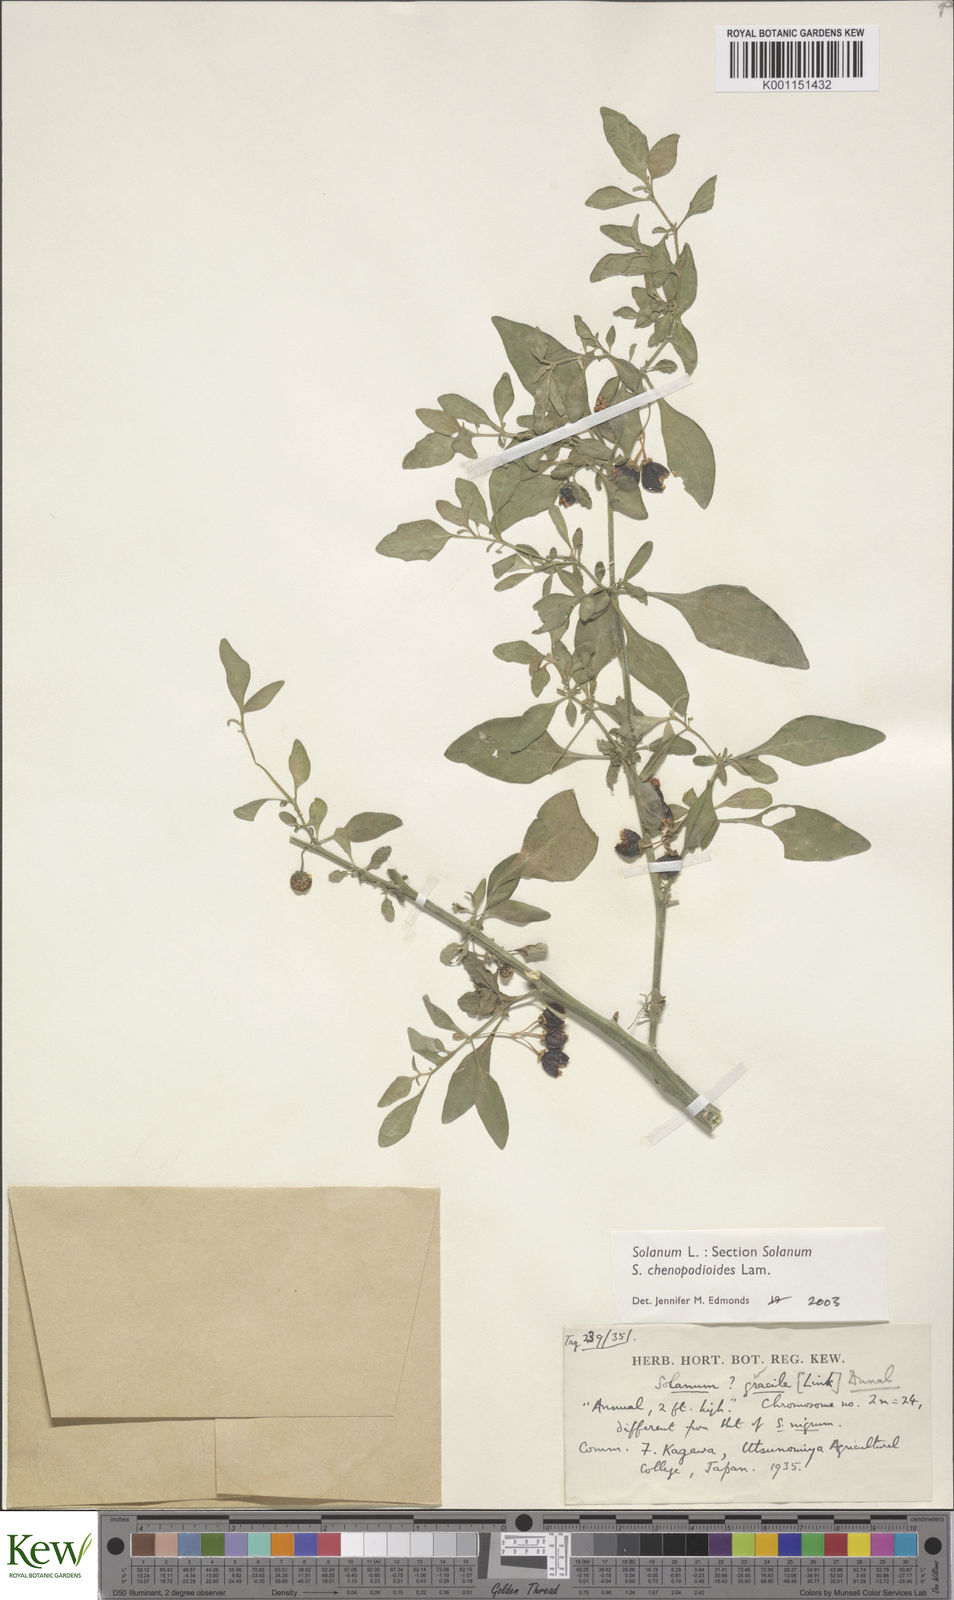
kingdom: Plantae
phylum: Tracheophyta
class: Magnoliopsida
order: Solanales
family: Solanaceae
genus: Solanum
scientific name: Solanum chenopodioides
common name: Tall nightshade
